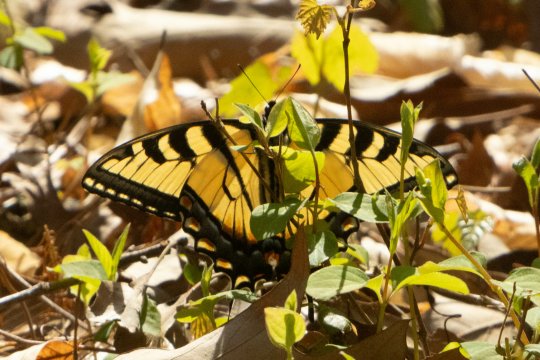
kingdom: Animalia
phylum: Arthropoda
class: Insecta
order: Lepidoptera
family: Papilionidae
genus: Pterourus
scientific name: Pterourus glaucus
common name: Eastern Tiger Swallowtail
